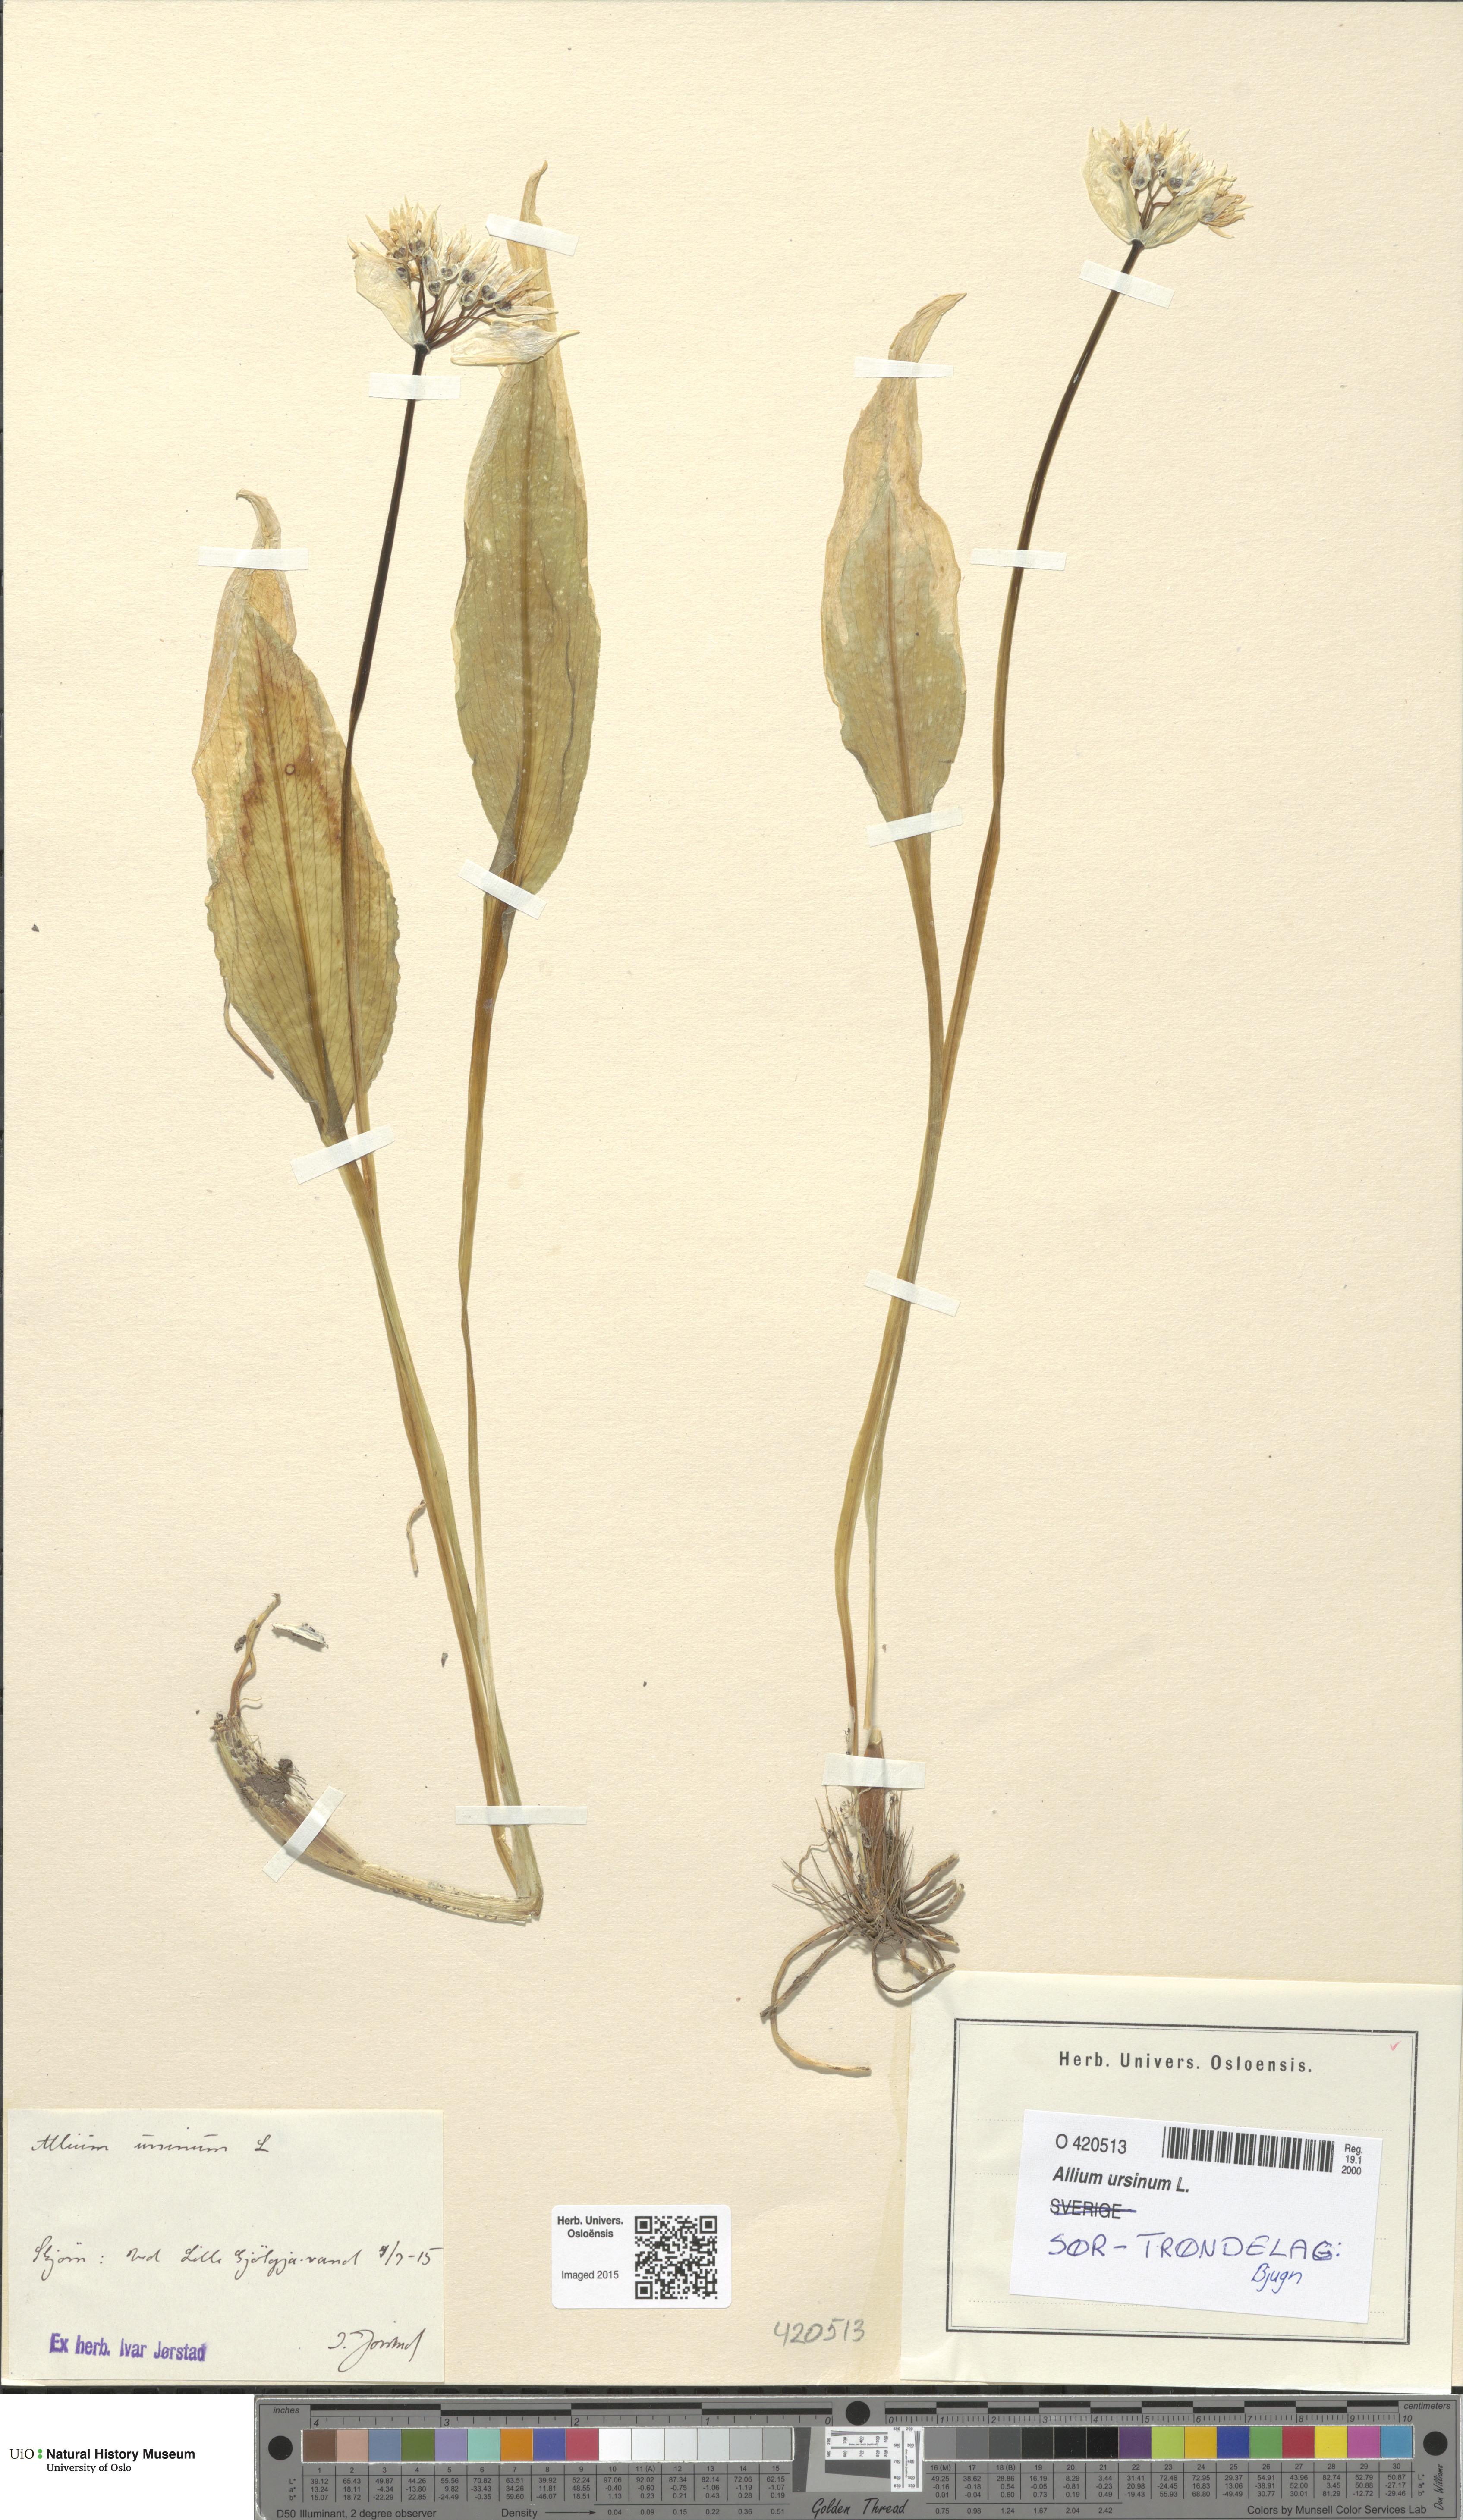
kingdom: Plantae
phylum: Tracheophyta
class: Liliopsida
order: Asparagales
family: Amaryllidaceae
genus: Allium
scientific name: Allium ursinum
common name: Ramsons
